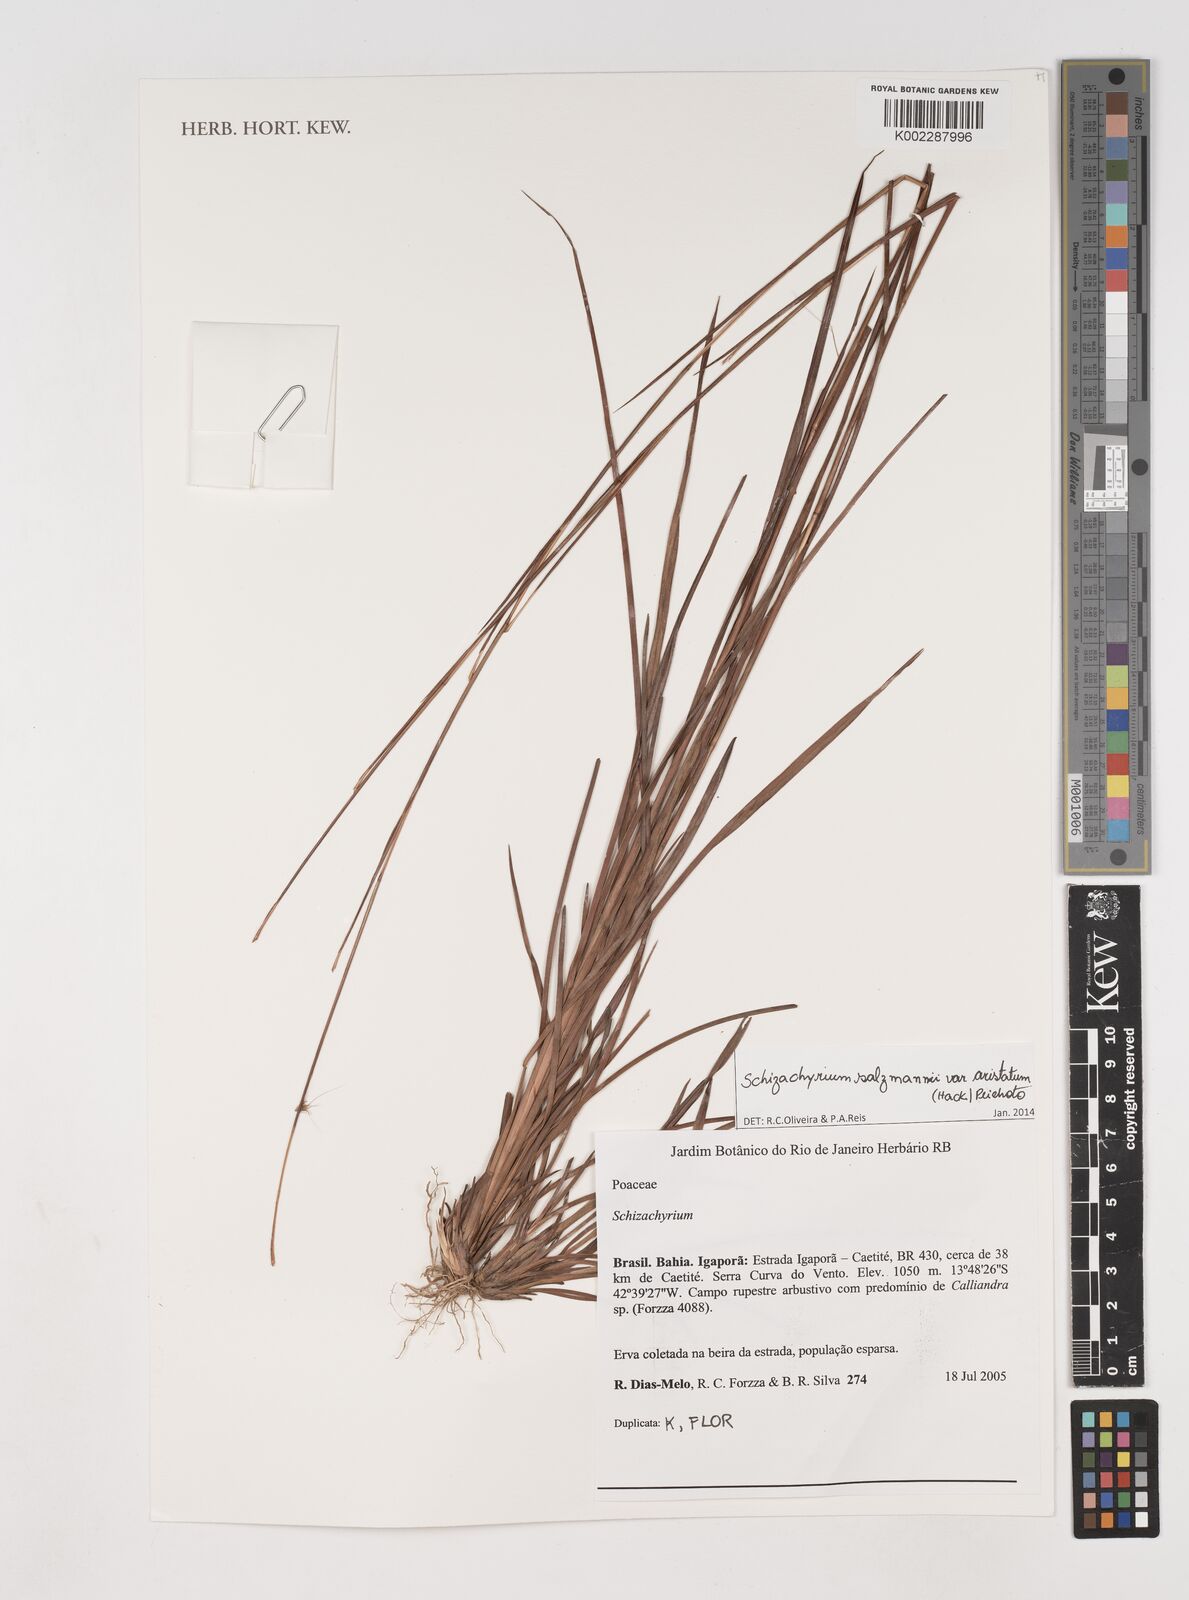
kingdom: Plantae
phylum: Tracheophyta
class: Liliopsida
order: Poales
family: Poaceae
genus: Andropogon
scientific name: Andropogon salzmannii
